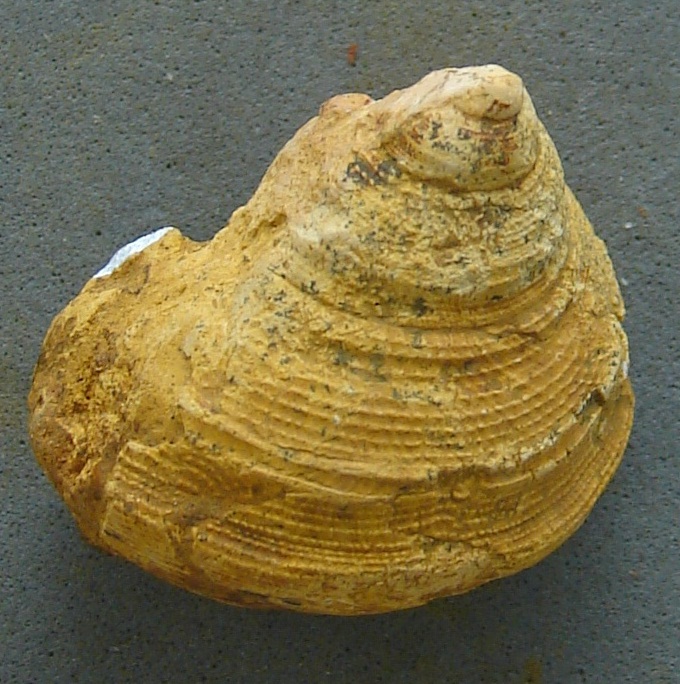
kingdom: Animalia
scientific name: Animalia
